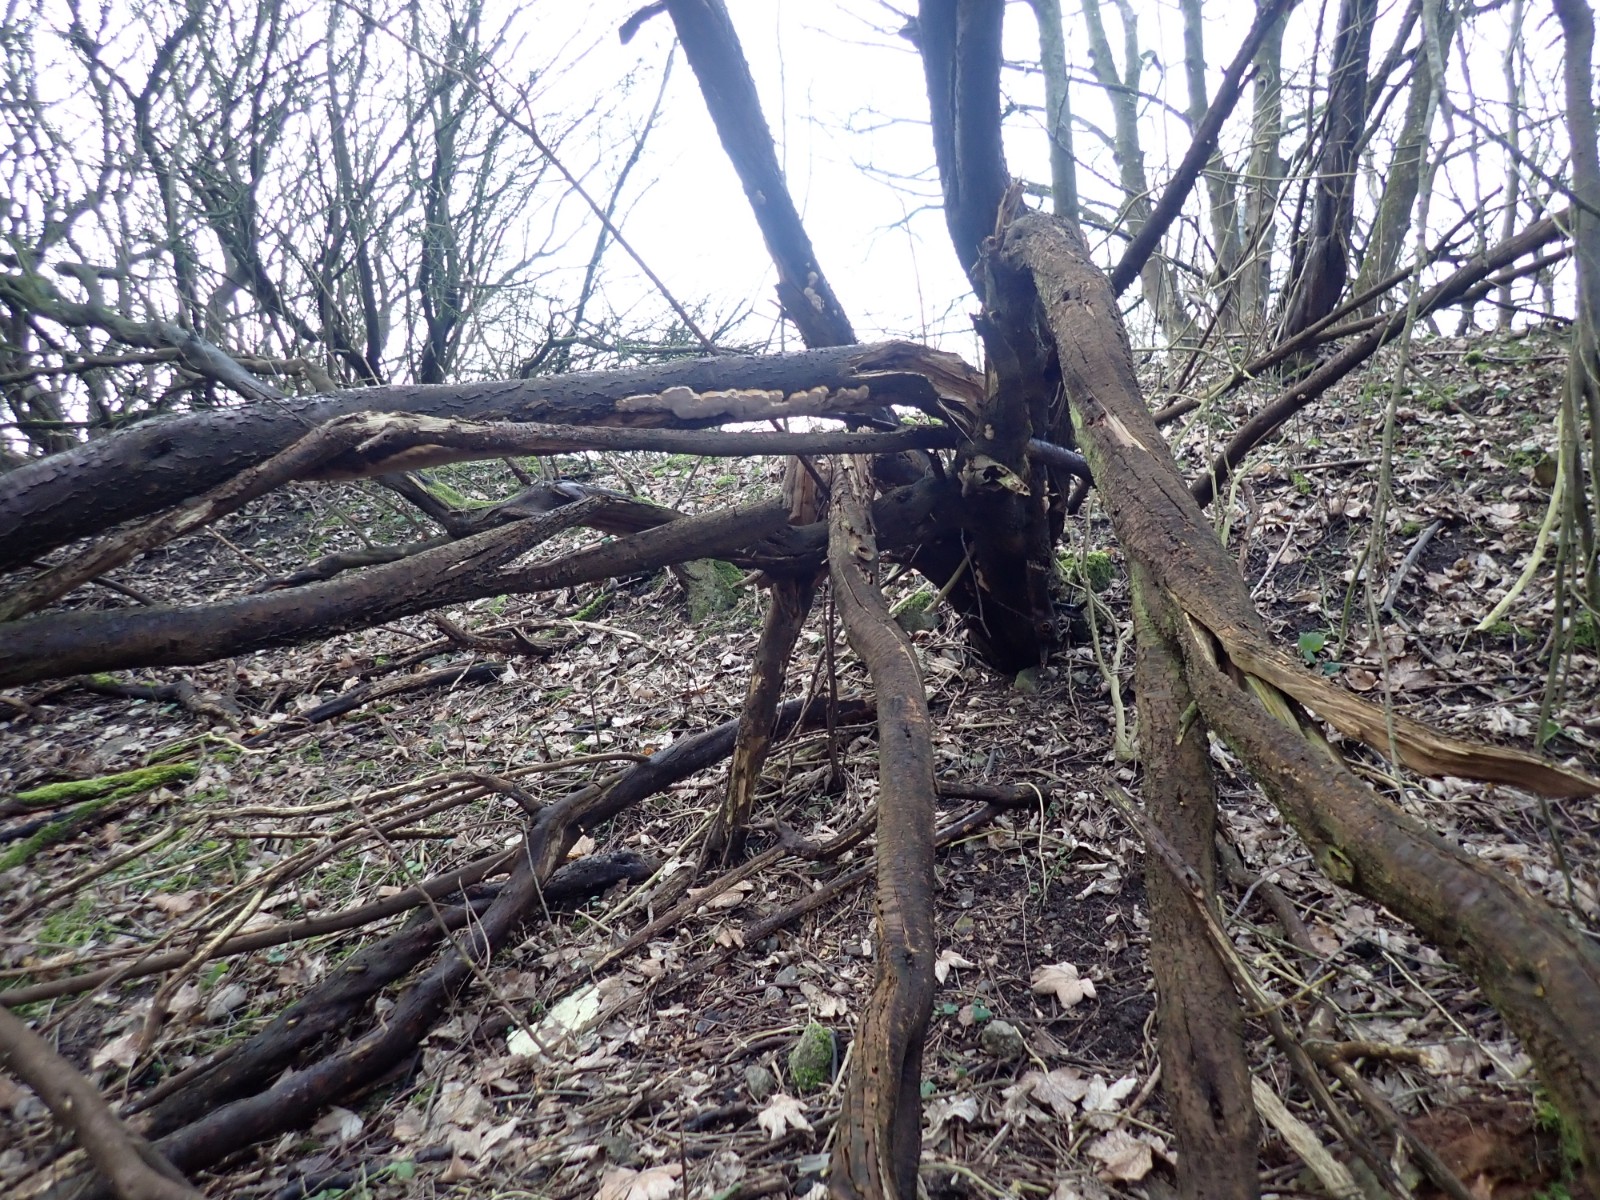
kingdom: Fungi
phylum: Basidiomycota
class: Agaricomycetes
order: Hymenochaetales
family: Hymenochaetaceae
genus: Phellinus
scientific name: Phellinus pomaceus
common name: blomme-ildporesvamp
